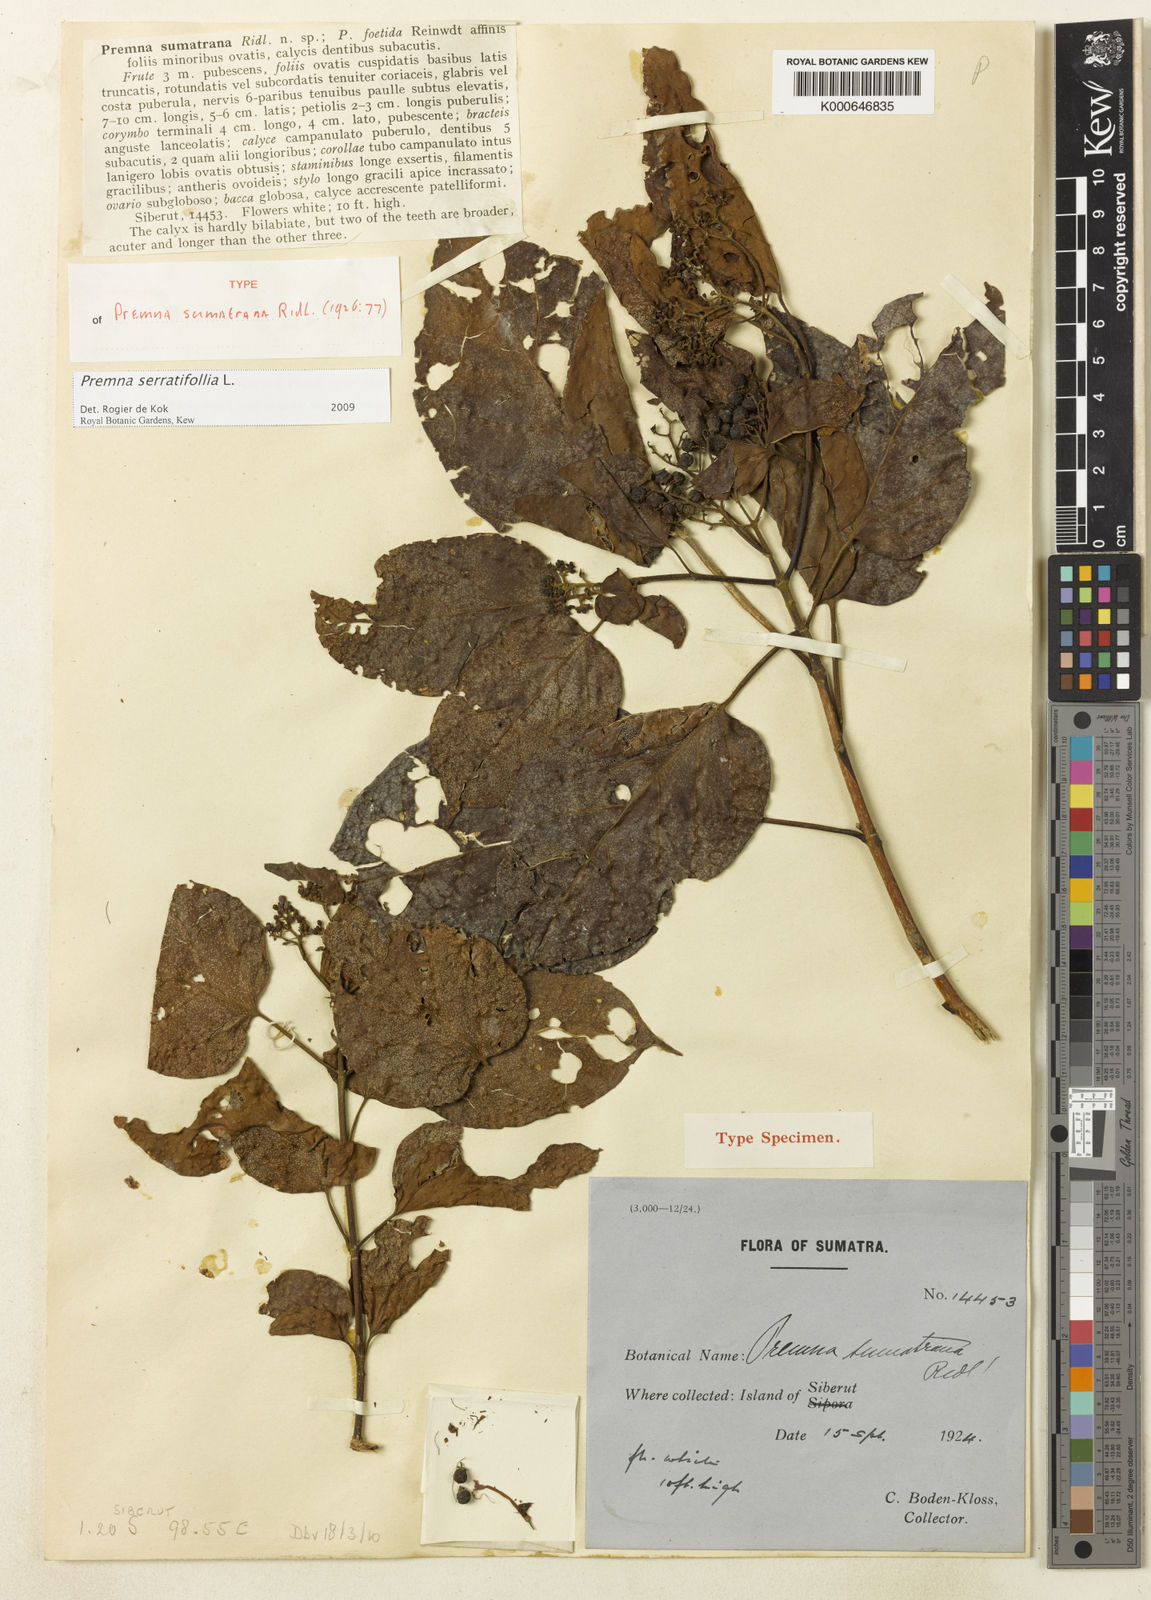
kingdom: Plantae
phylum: Tracheophyta
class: Magnoliopsida
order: Lamiales
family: Lamiaceae
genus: Premna
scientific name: Premna serratifolia
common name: Bastard guelder
